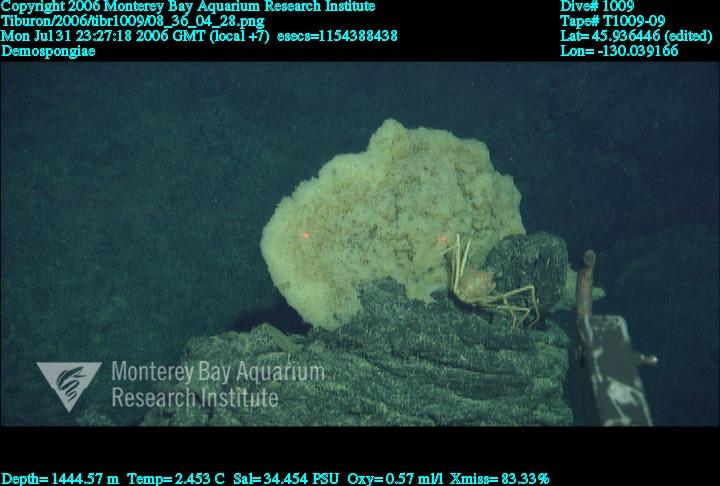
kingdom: Animalia
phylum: Porifera
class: Demospongiae
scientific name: Demospongiae
